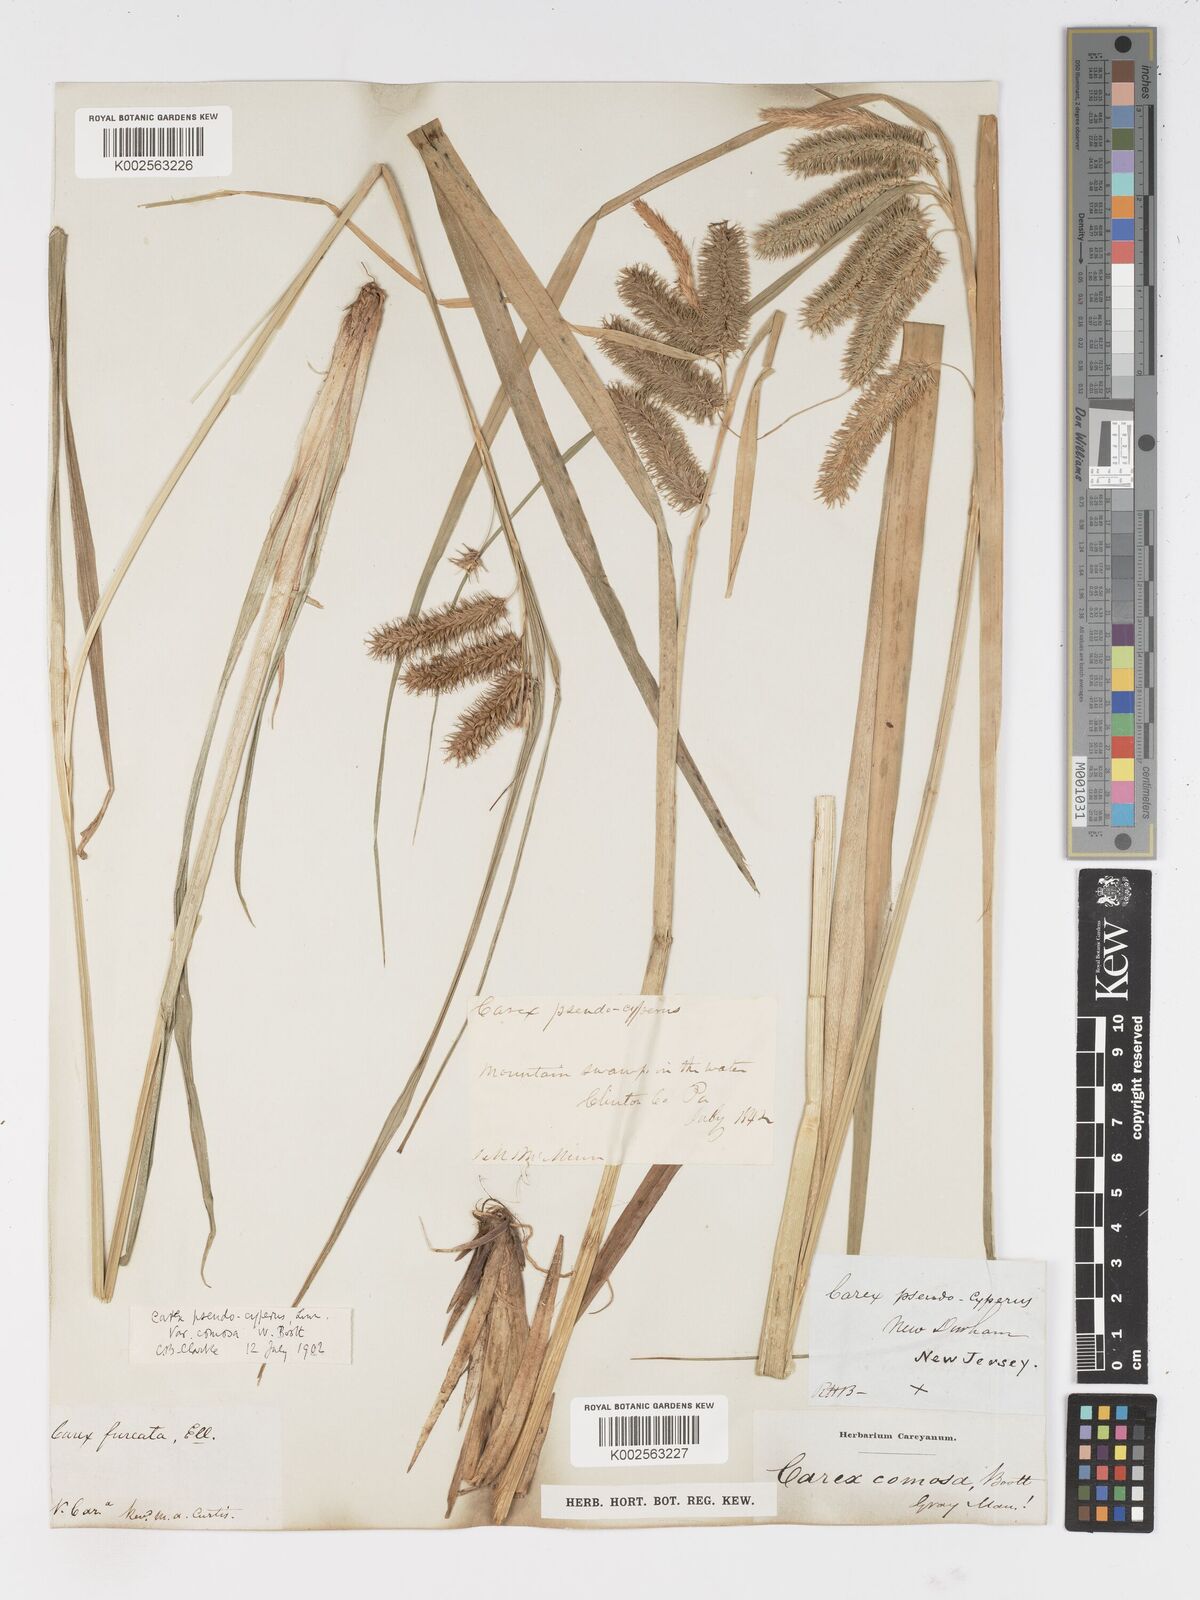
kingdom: Plantae
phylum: Tracheophyta
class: Liliopsida
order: Poales
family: Cyperaceae
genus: Carex
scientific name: Carex comosa
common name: Bristly sedge
